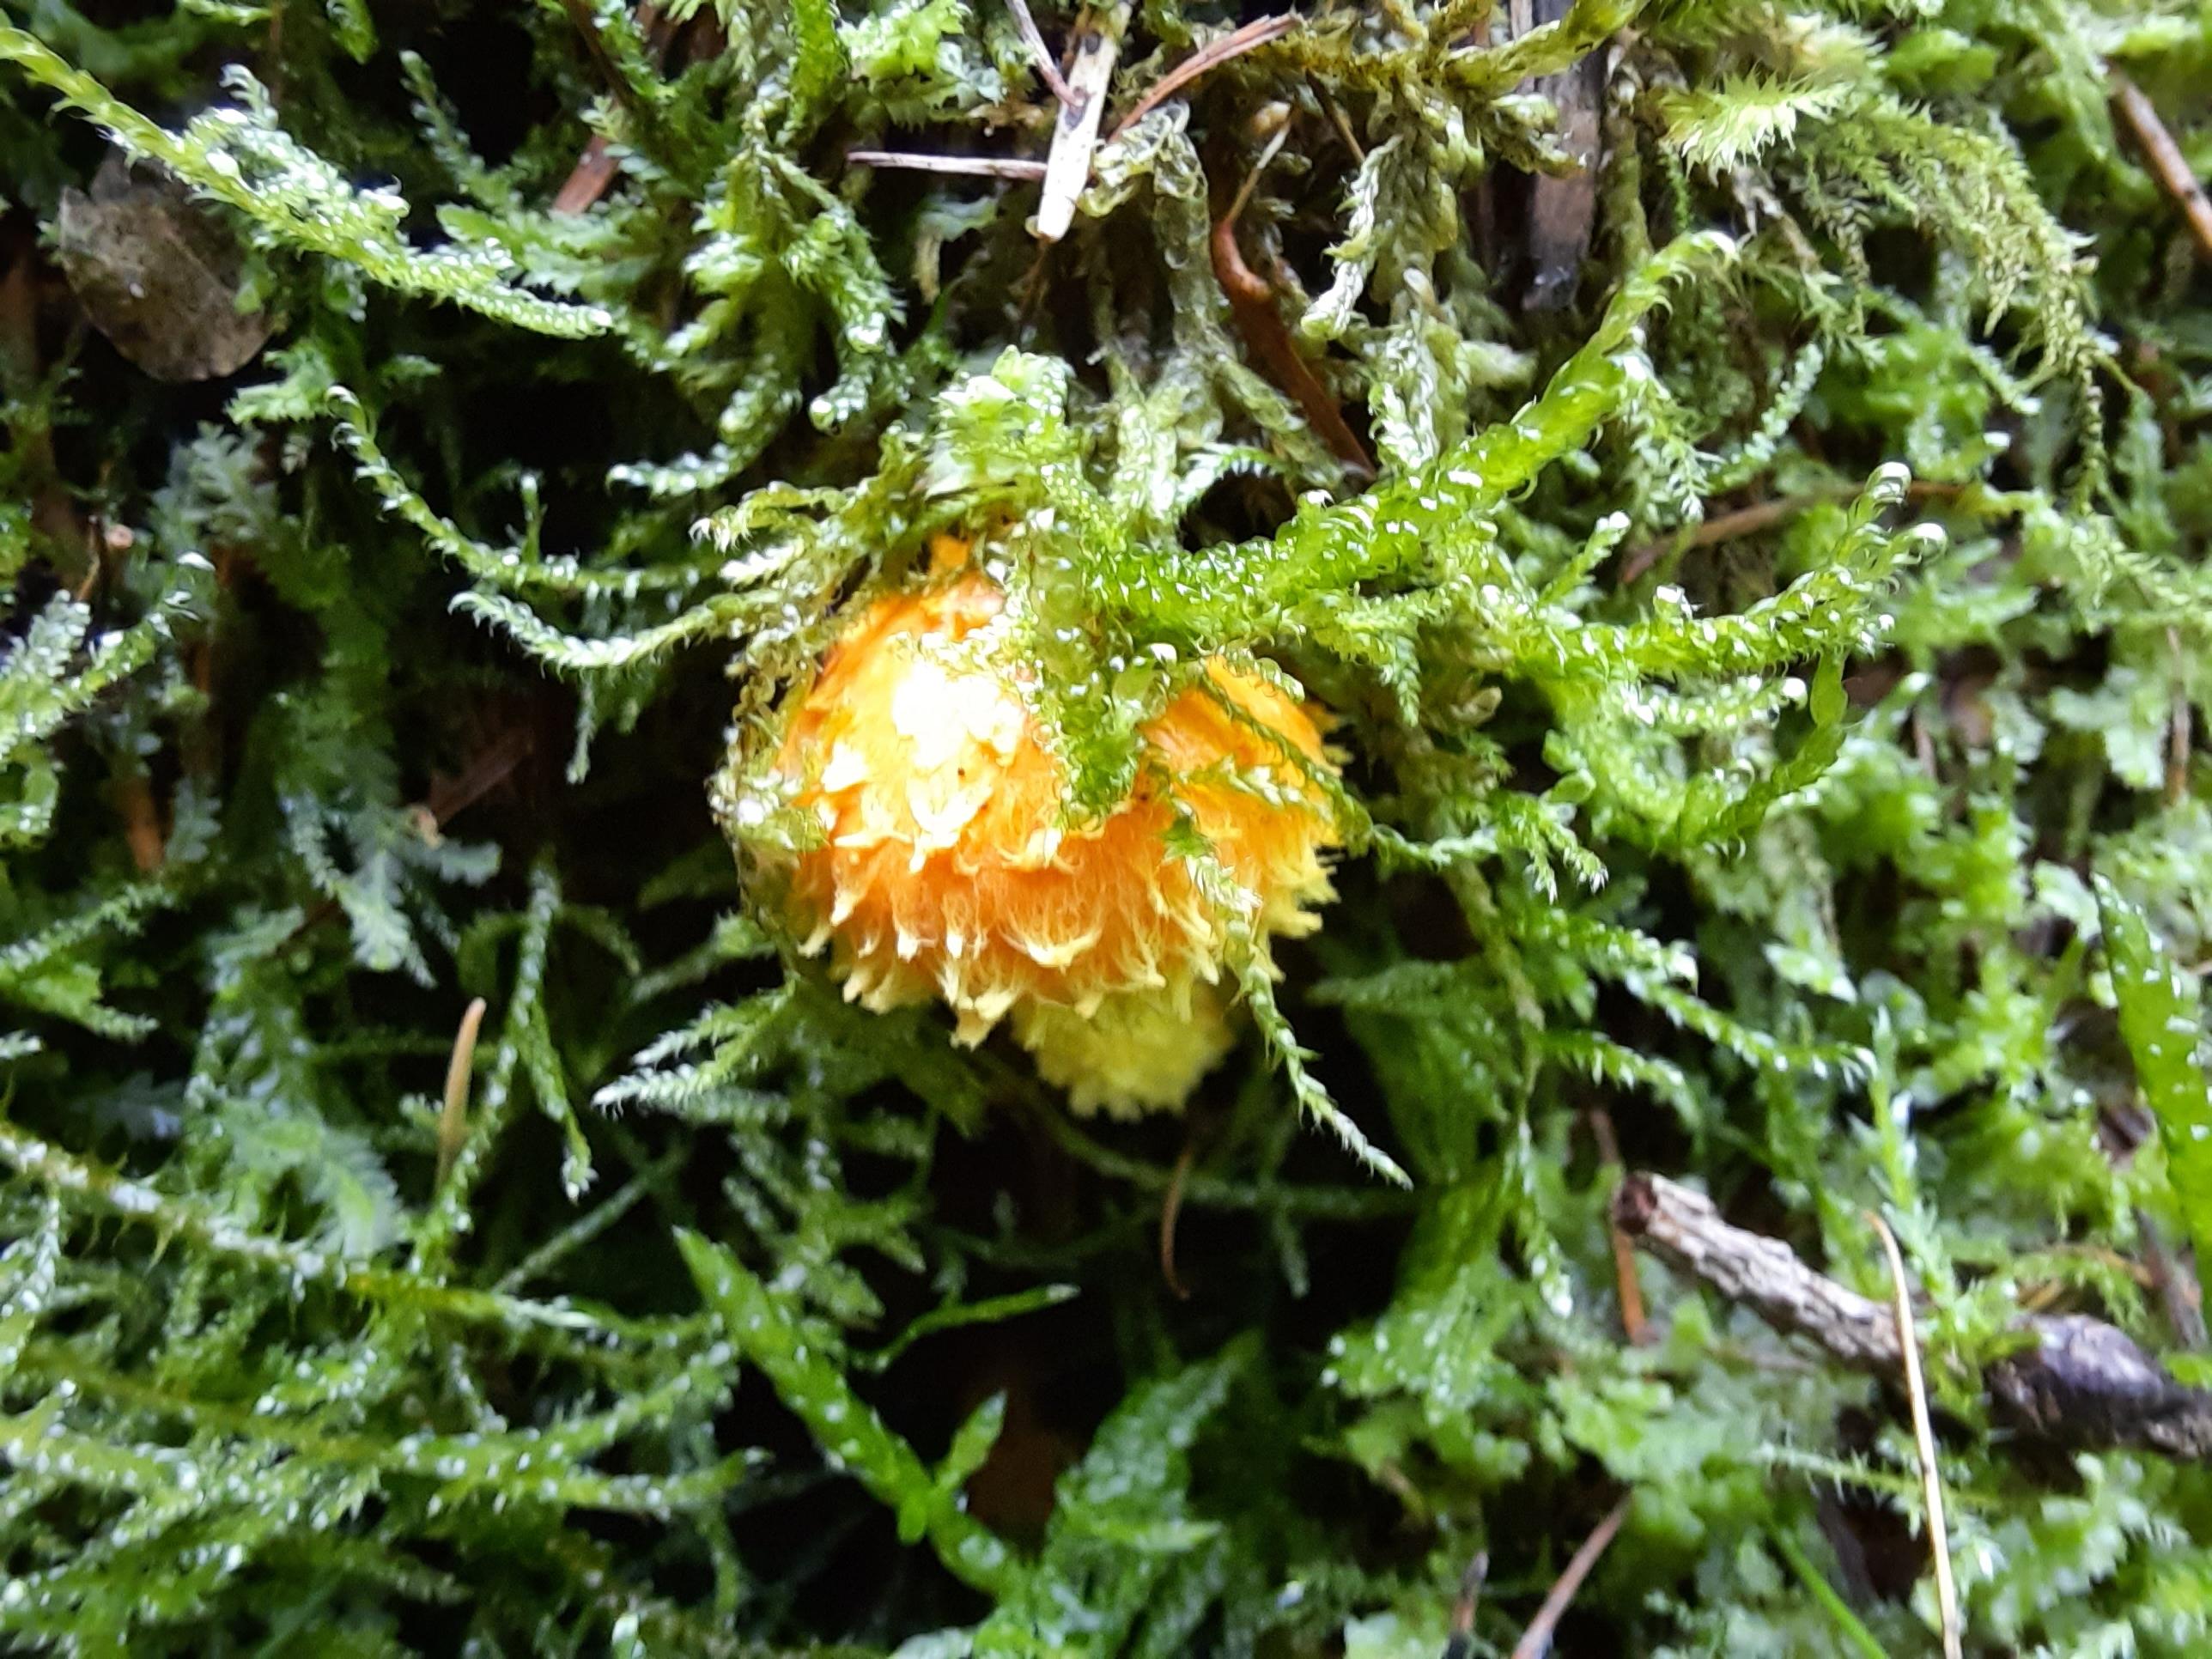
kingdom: Fungi
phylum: Basidiomycota
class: Agaricomycetes
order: Agaricales
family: Strophariaceae
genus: Pholiota
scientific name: Pholiota flammans
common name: flamme-skælhat
